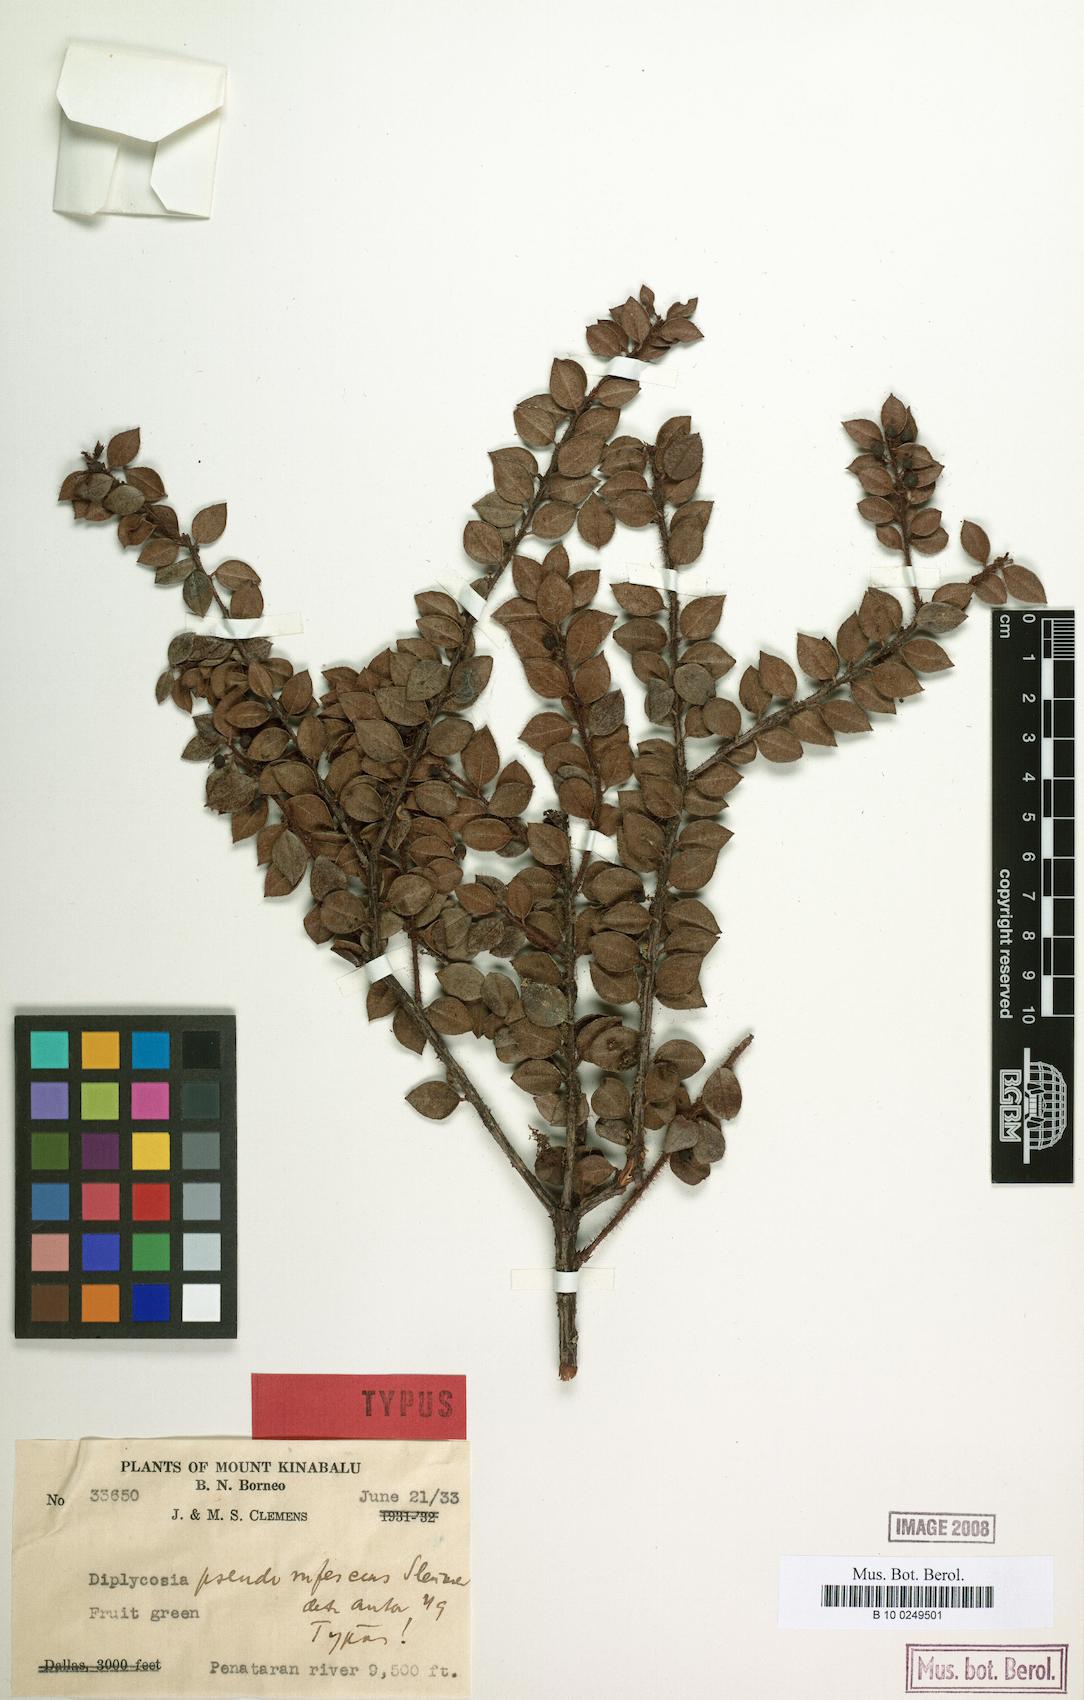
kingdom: Plantae
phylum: Tracheophyta
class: Magnoliopsida
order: Ericales
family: Ericaceae
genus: Gaultheria
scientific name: Gaultheria pseudorufescens
